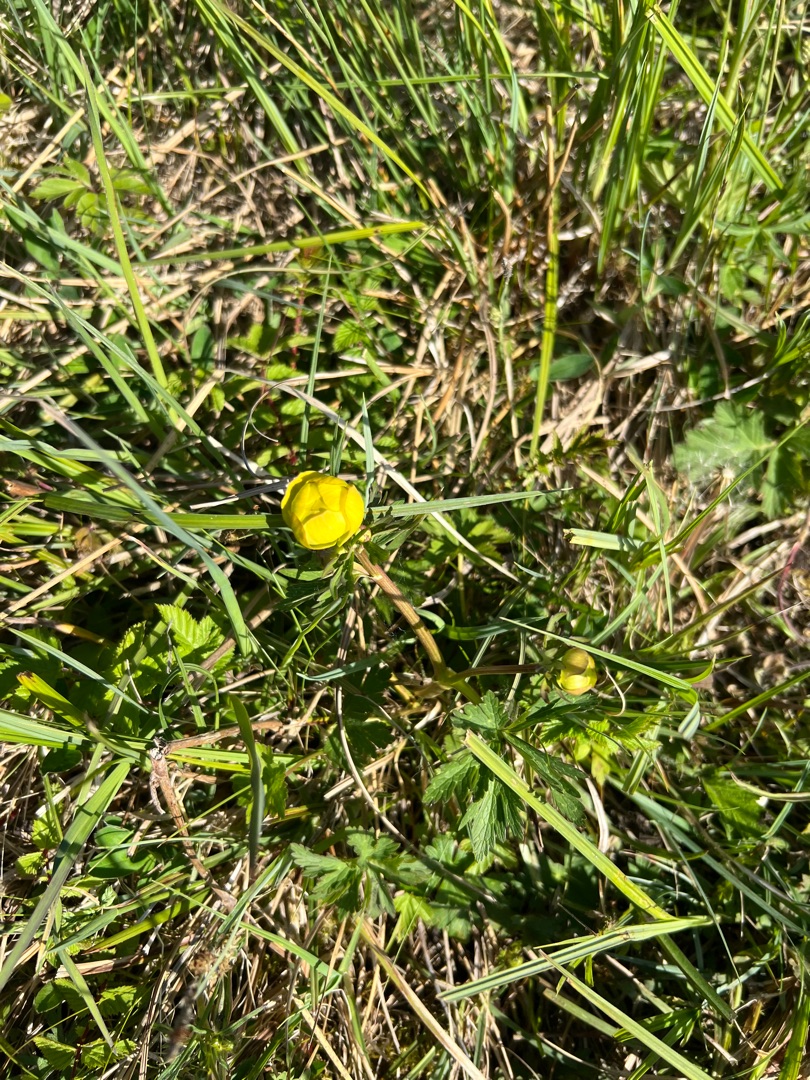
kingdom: Plantae
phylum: Tracheophyta
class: Magnoliopsida
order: Ranunculales
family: Ranunculaceae
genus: Trollius
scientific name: Trollius europaeus
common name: Engblomme
